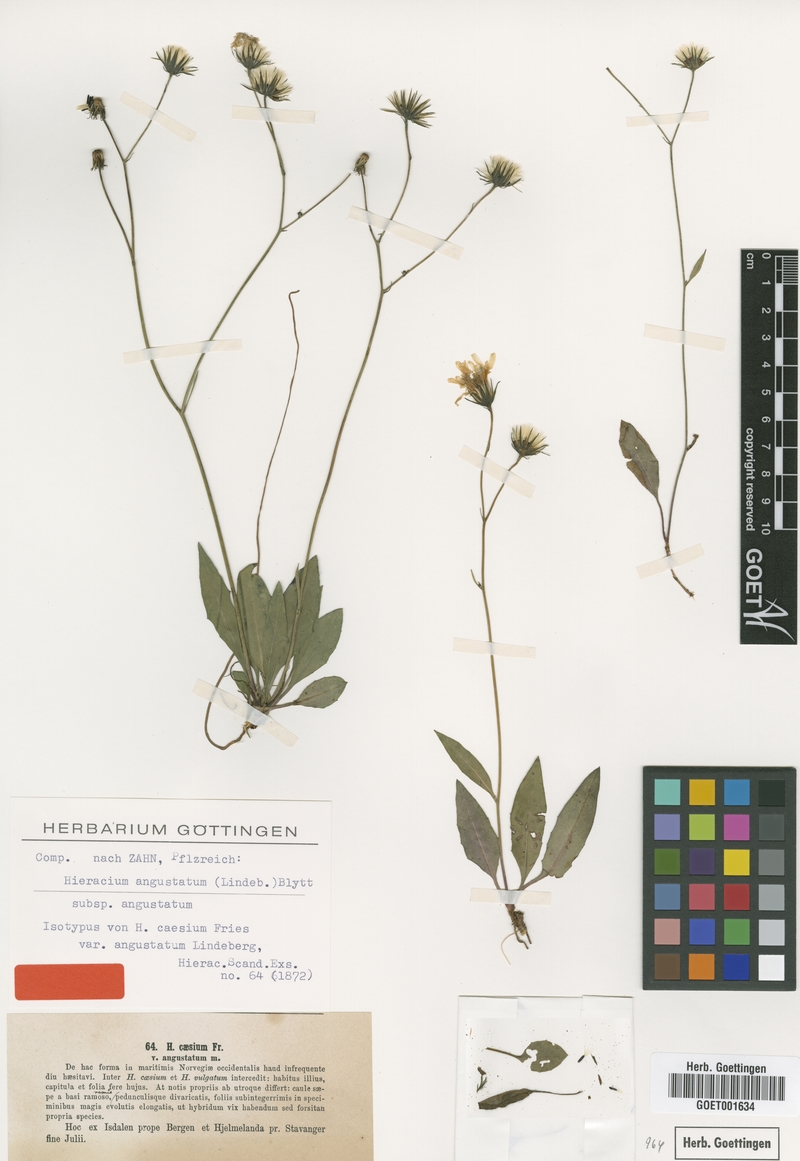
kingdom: Plantae
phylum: Tracheophyta
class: Magnoliopsida
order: Asterales
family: Asteraceae
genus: Hieracium
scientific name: Hieracium angustatum
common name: Lesser-leaved hawkweed
